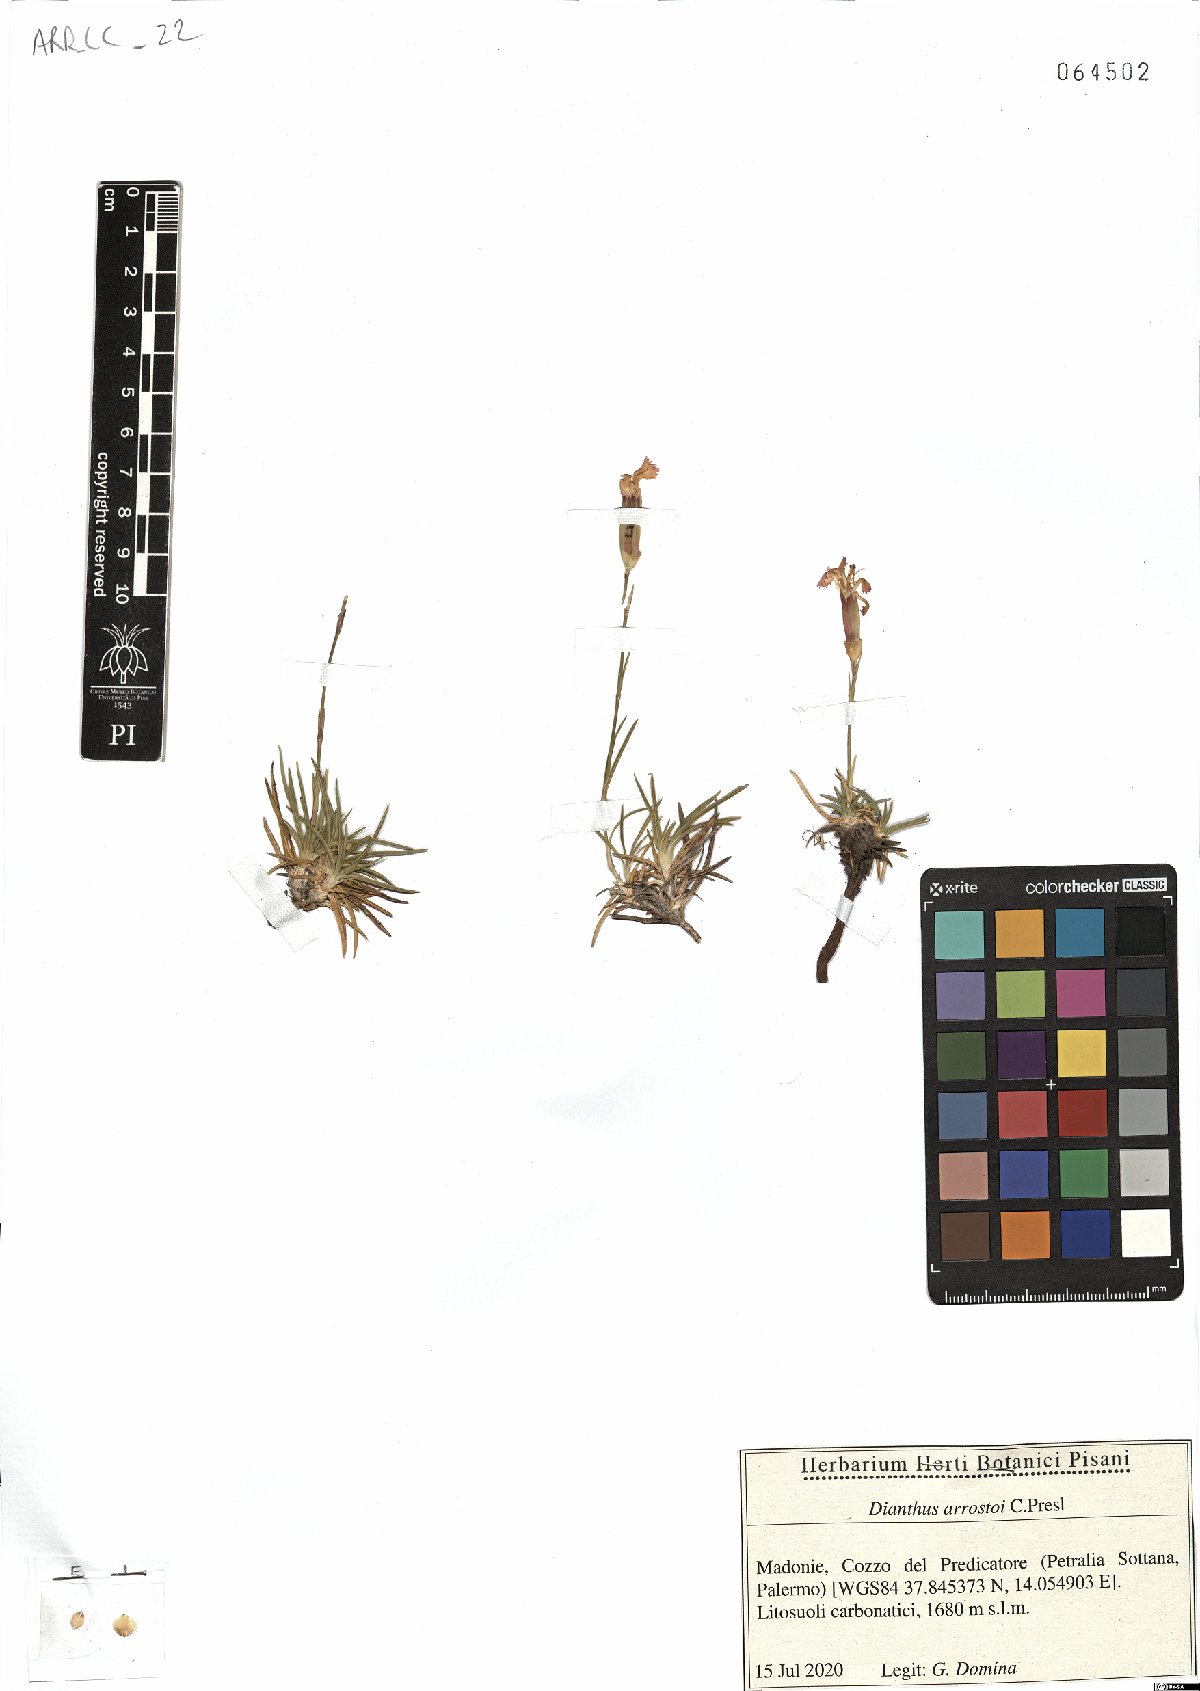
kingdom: Plantae
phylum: Tracheophyta
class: Magnoliopsida
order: Caryophyllales
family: Caryophyllaceae
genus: Dianthus
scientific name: Dianthus arrostoi
